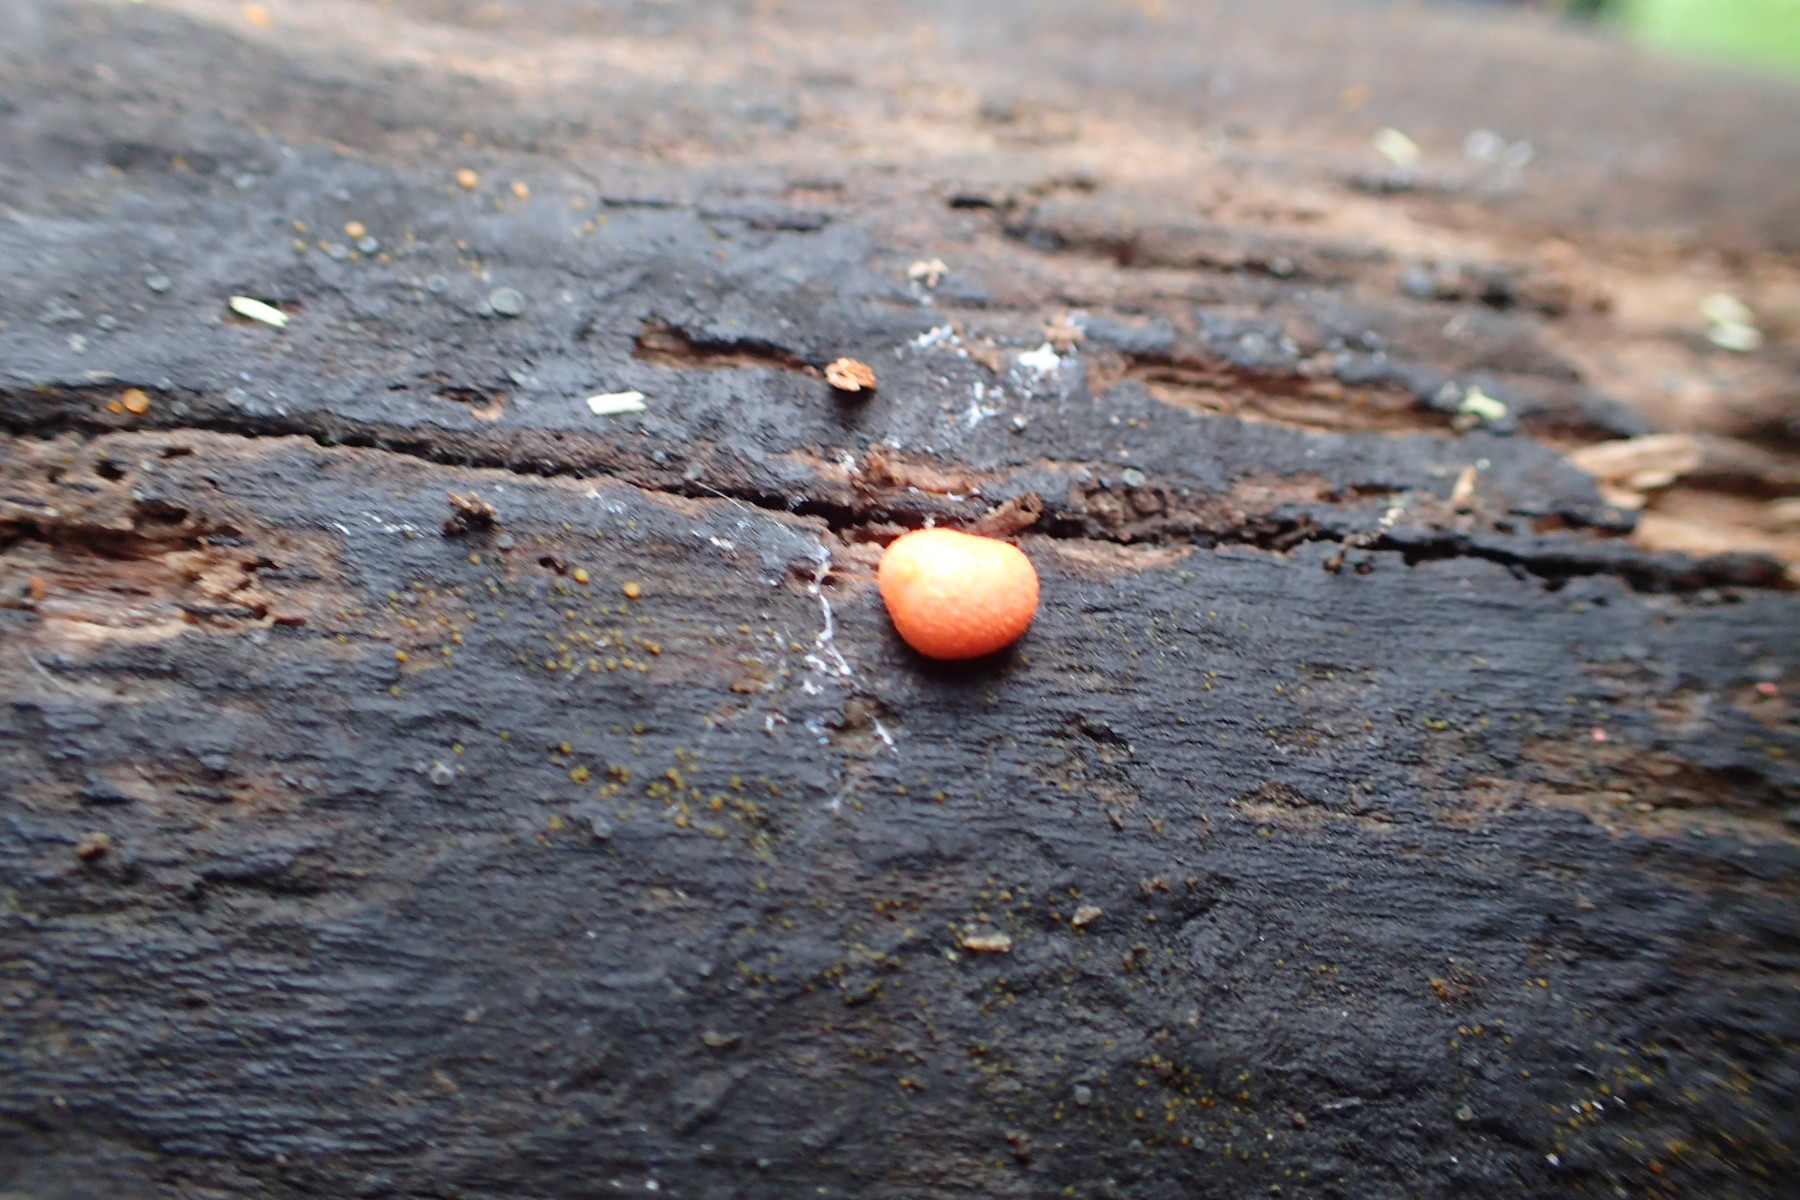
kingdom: Protozoa
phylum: Mycetozoa
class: Myxomycetes
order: Cribrariales
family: Tubiferaceae
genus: Lycogala
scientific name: Lycogala epidendrum
